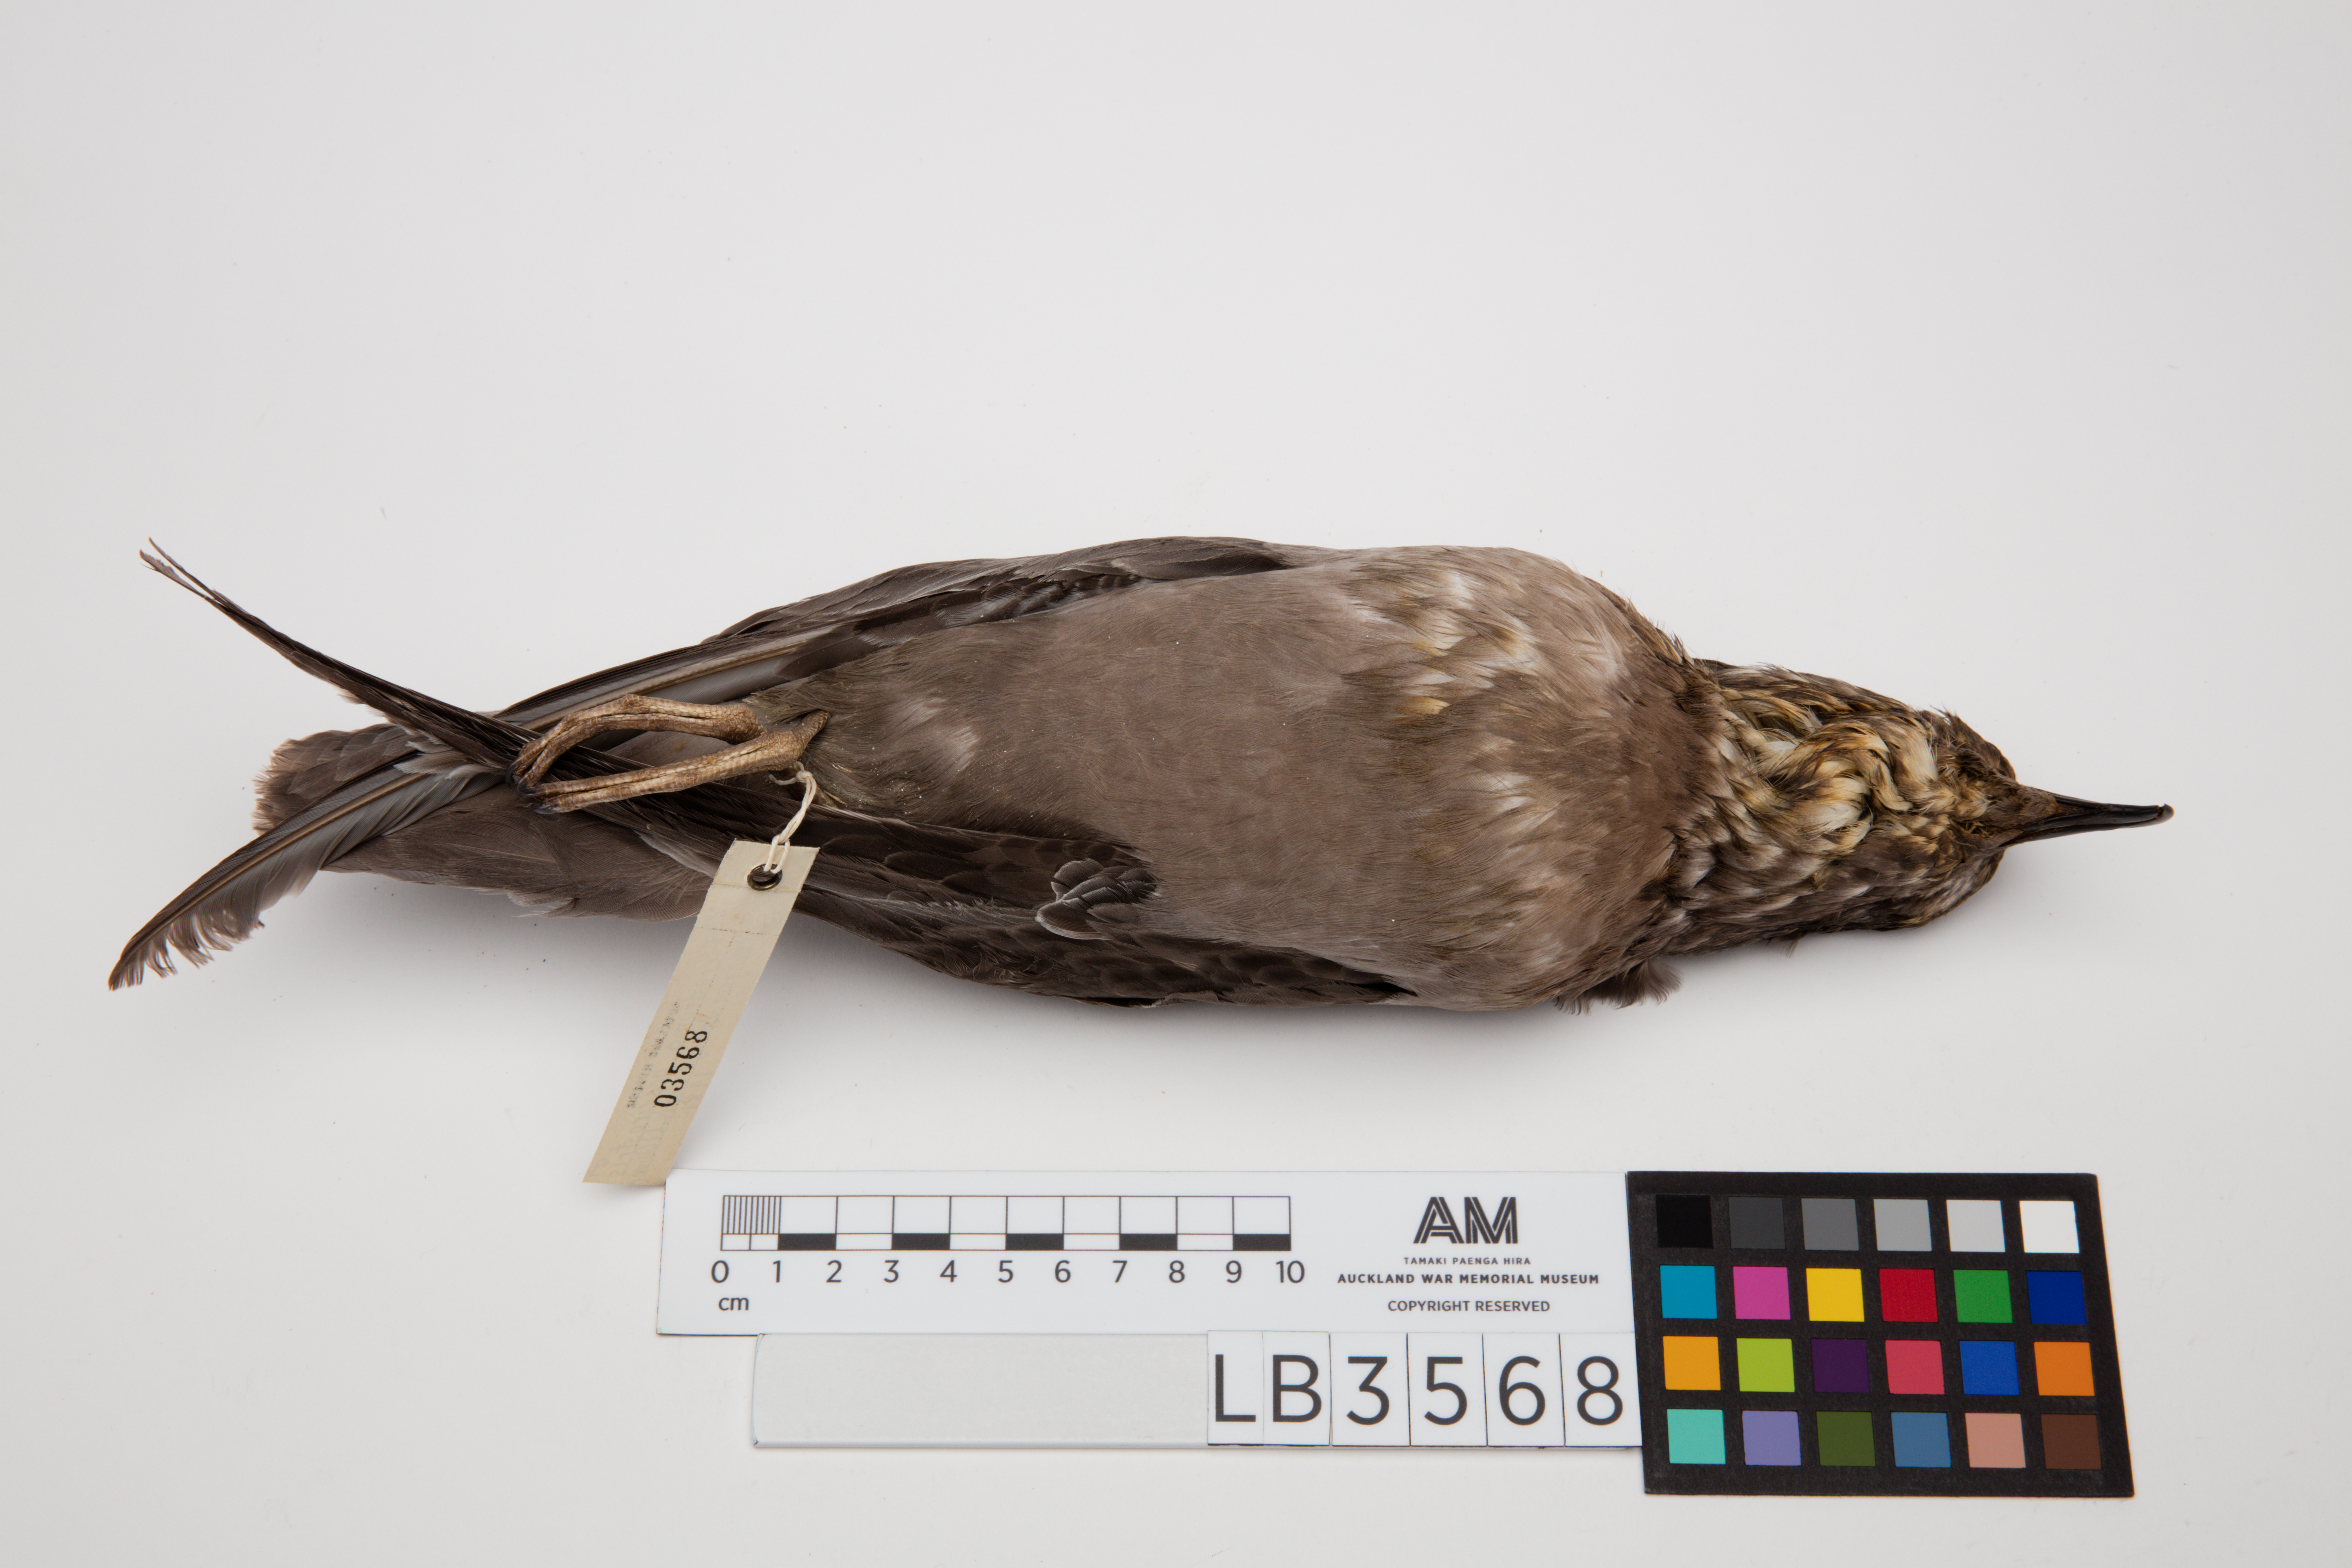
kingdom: Animalia
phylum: Chordata
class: Aves
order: Procellariiformes
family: Procellariidae
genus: Aphrodroma
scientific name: Aphrodroma brevirostris
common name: Kerguelen petrel
